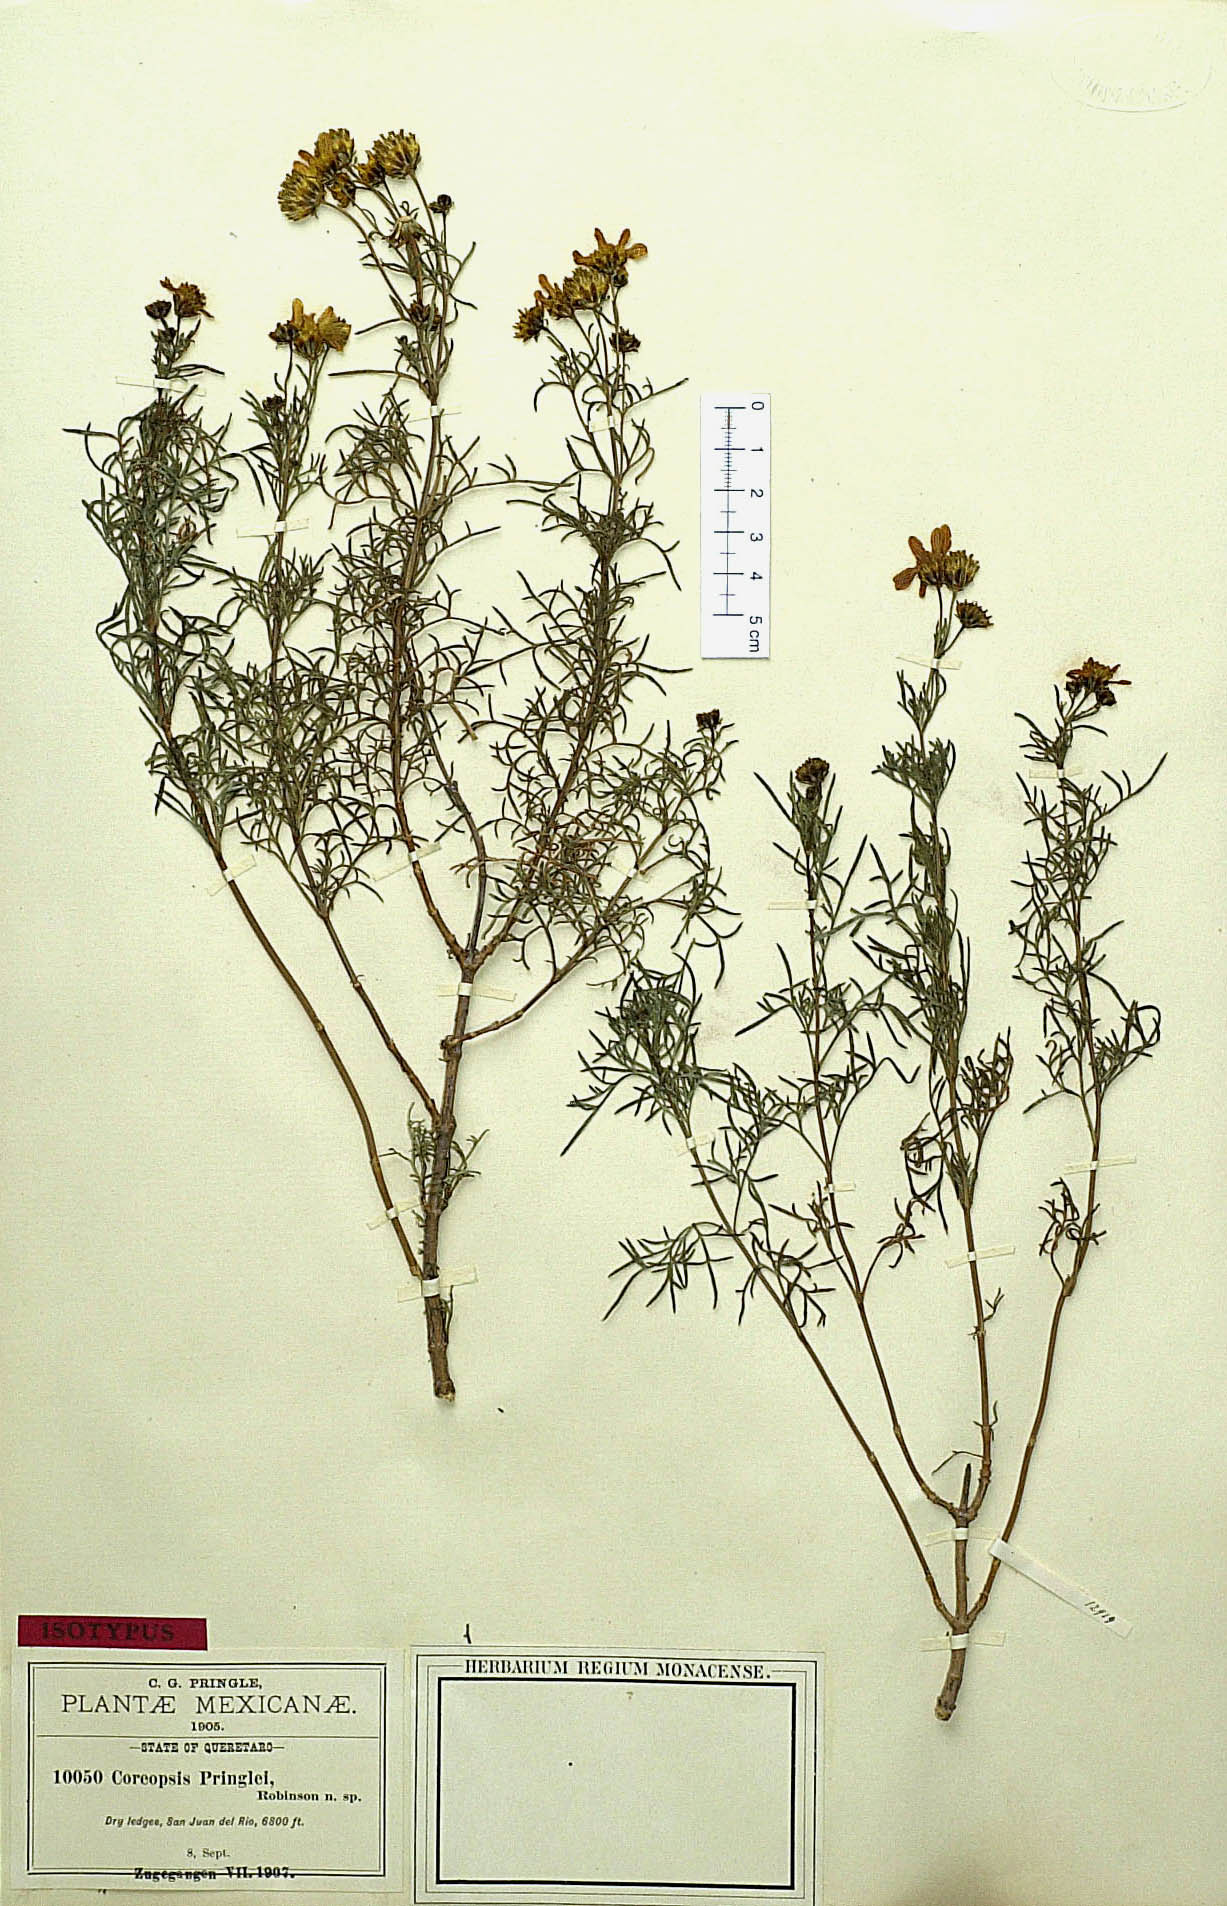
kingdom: Plantae
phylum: Tracheophyta
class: Magnoliopsida
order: Asterales
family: Asteraceae
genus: Coreopsis
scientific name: Coreopsis pringlei
